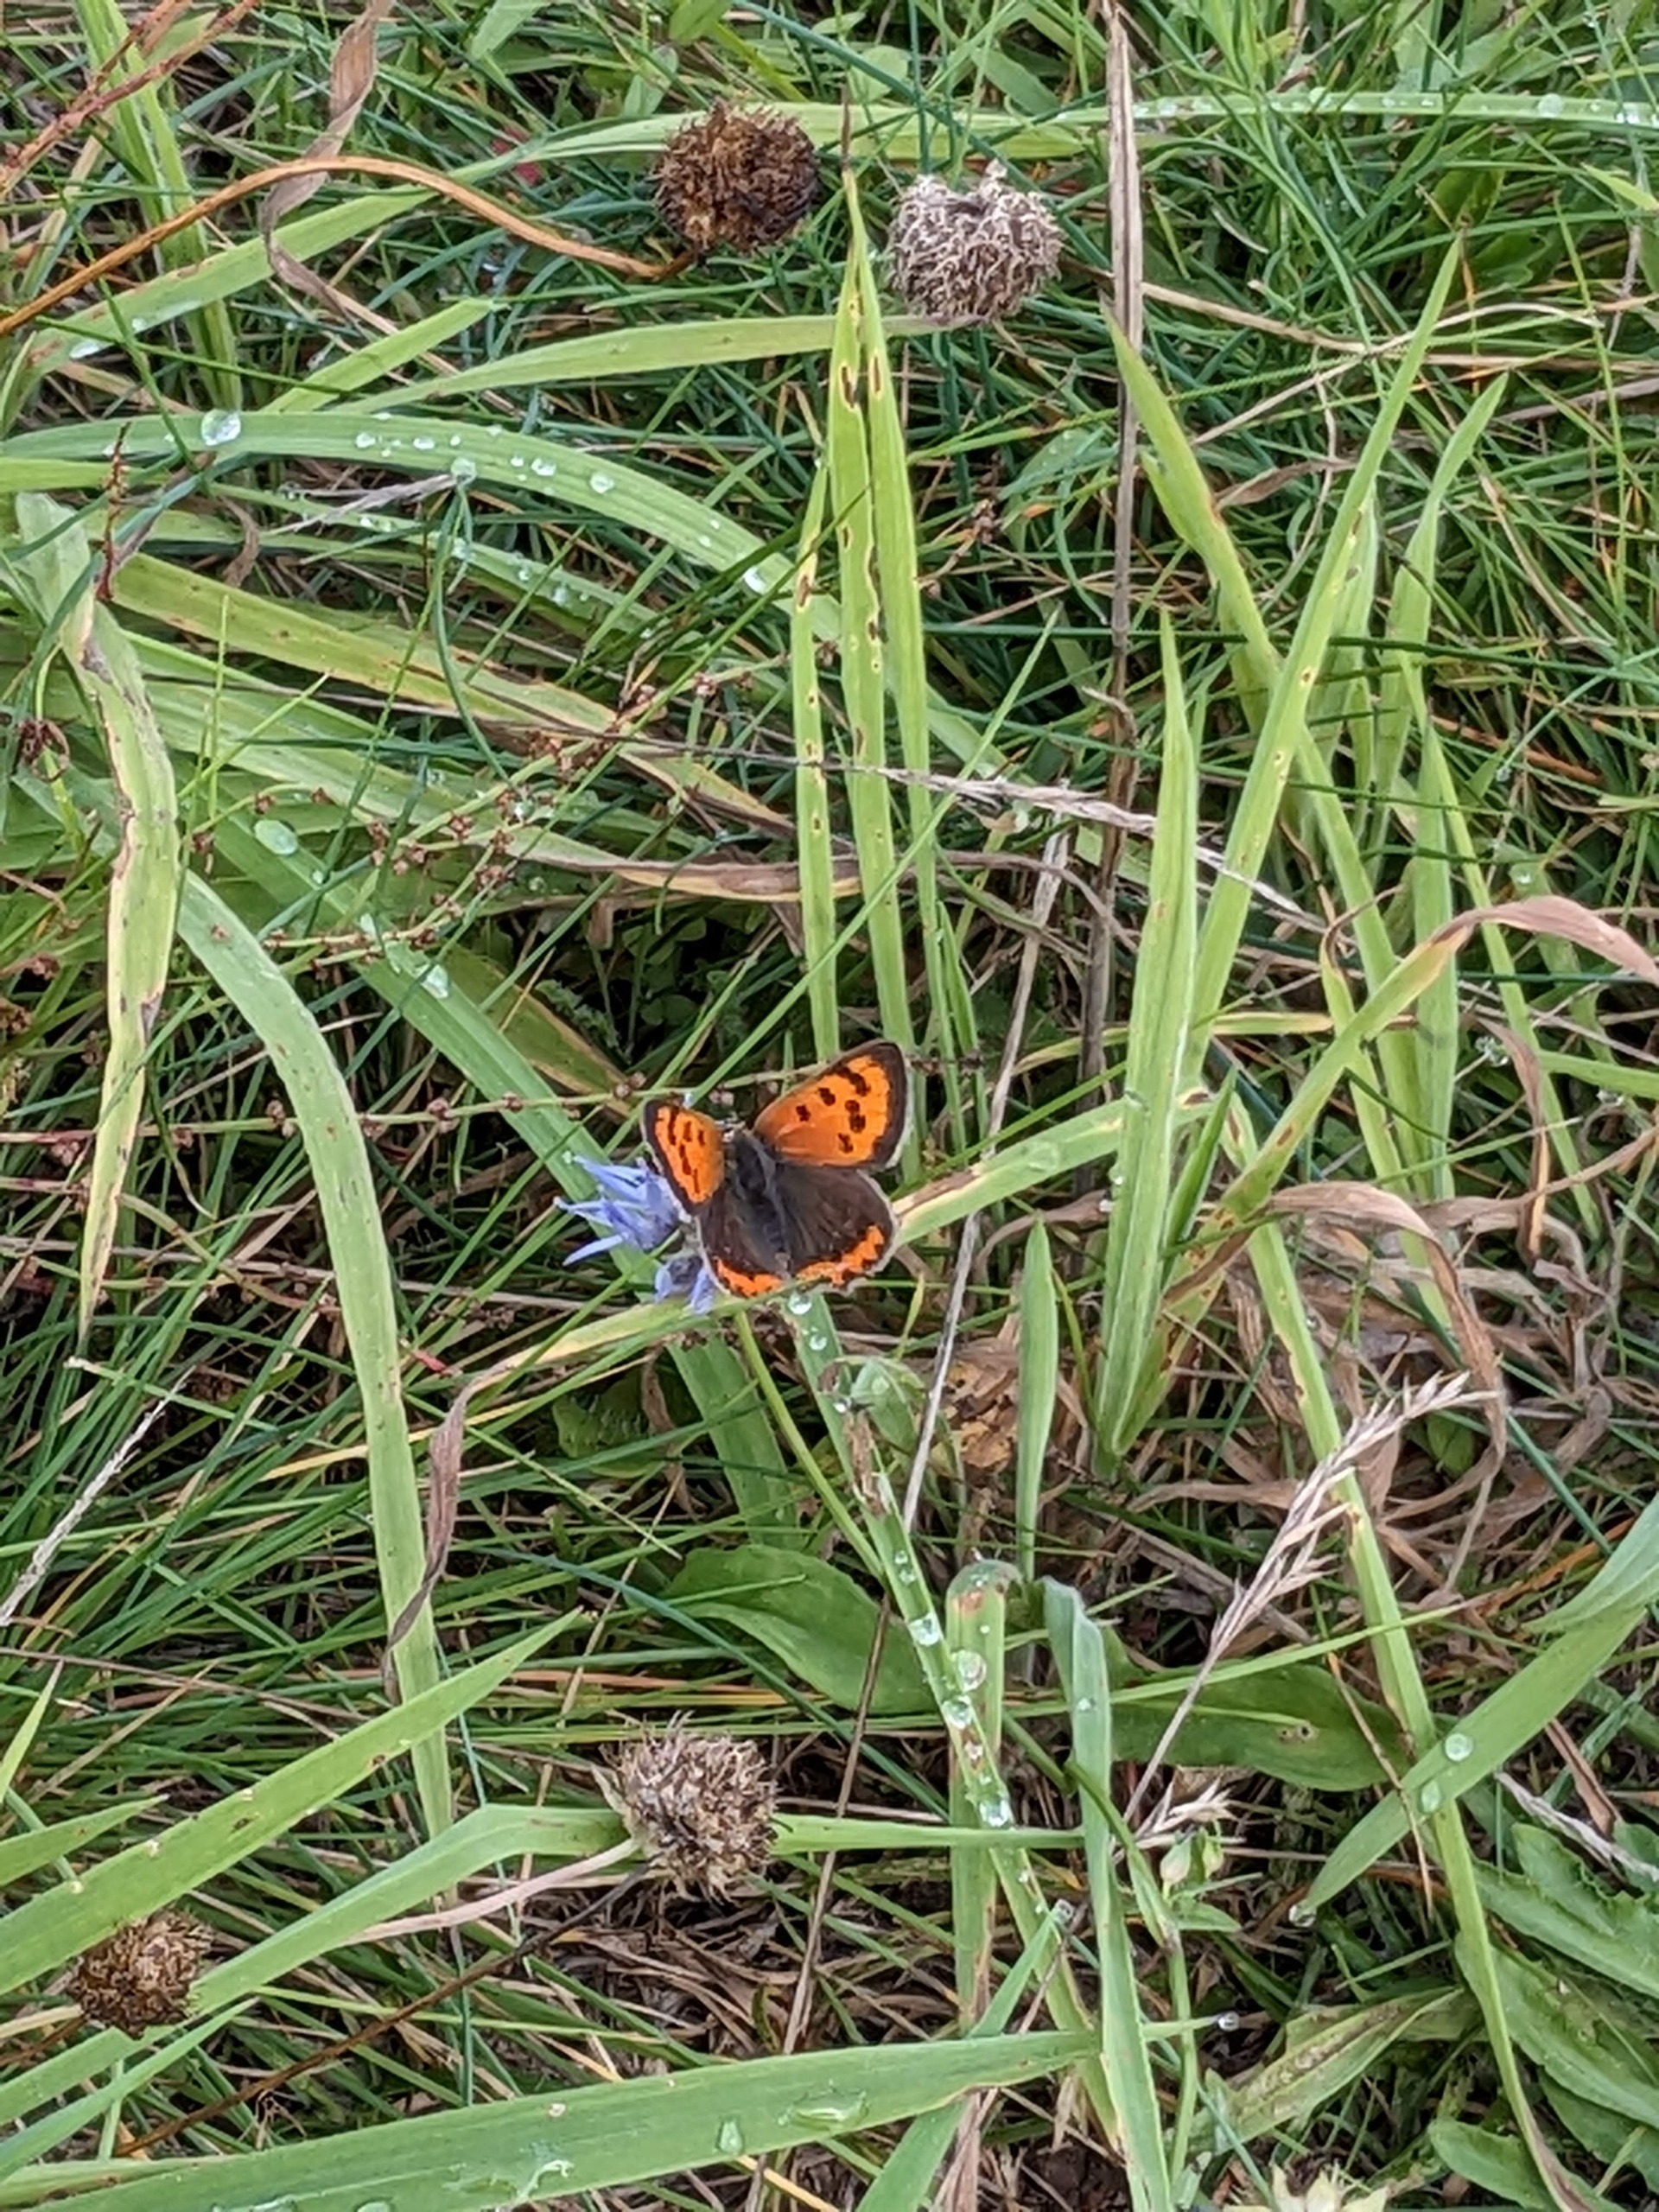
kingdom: Animalia
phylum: Arthropoda
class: Insecta
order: Lepidoptera
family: Lycaenidae
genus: Lycaena
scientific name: Lycaena phlaeas
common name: Lille ildfugl
